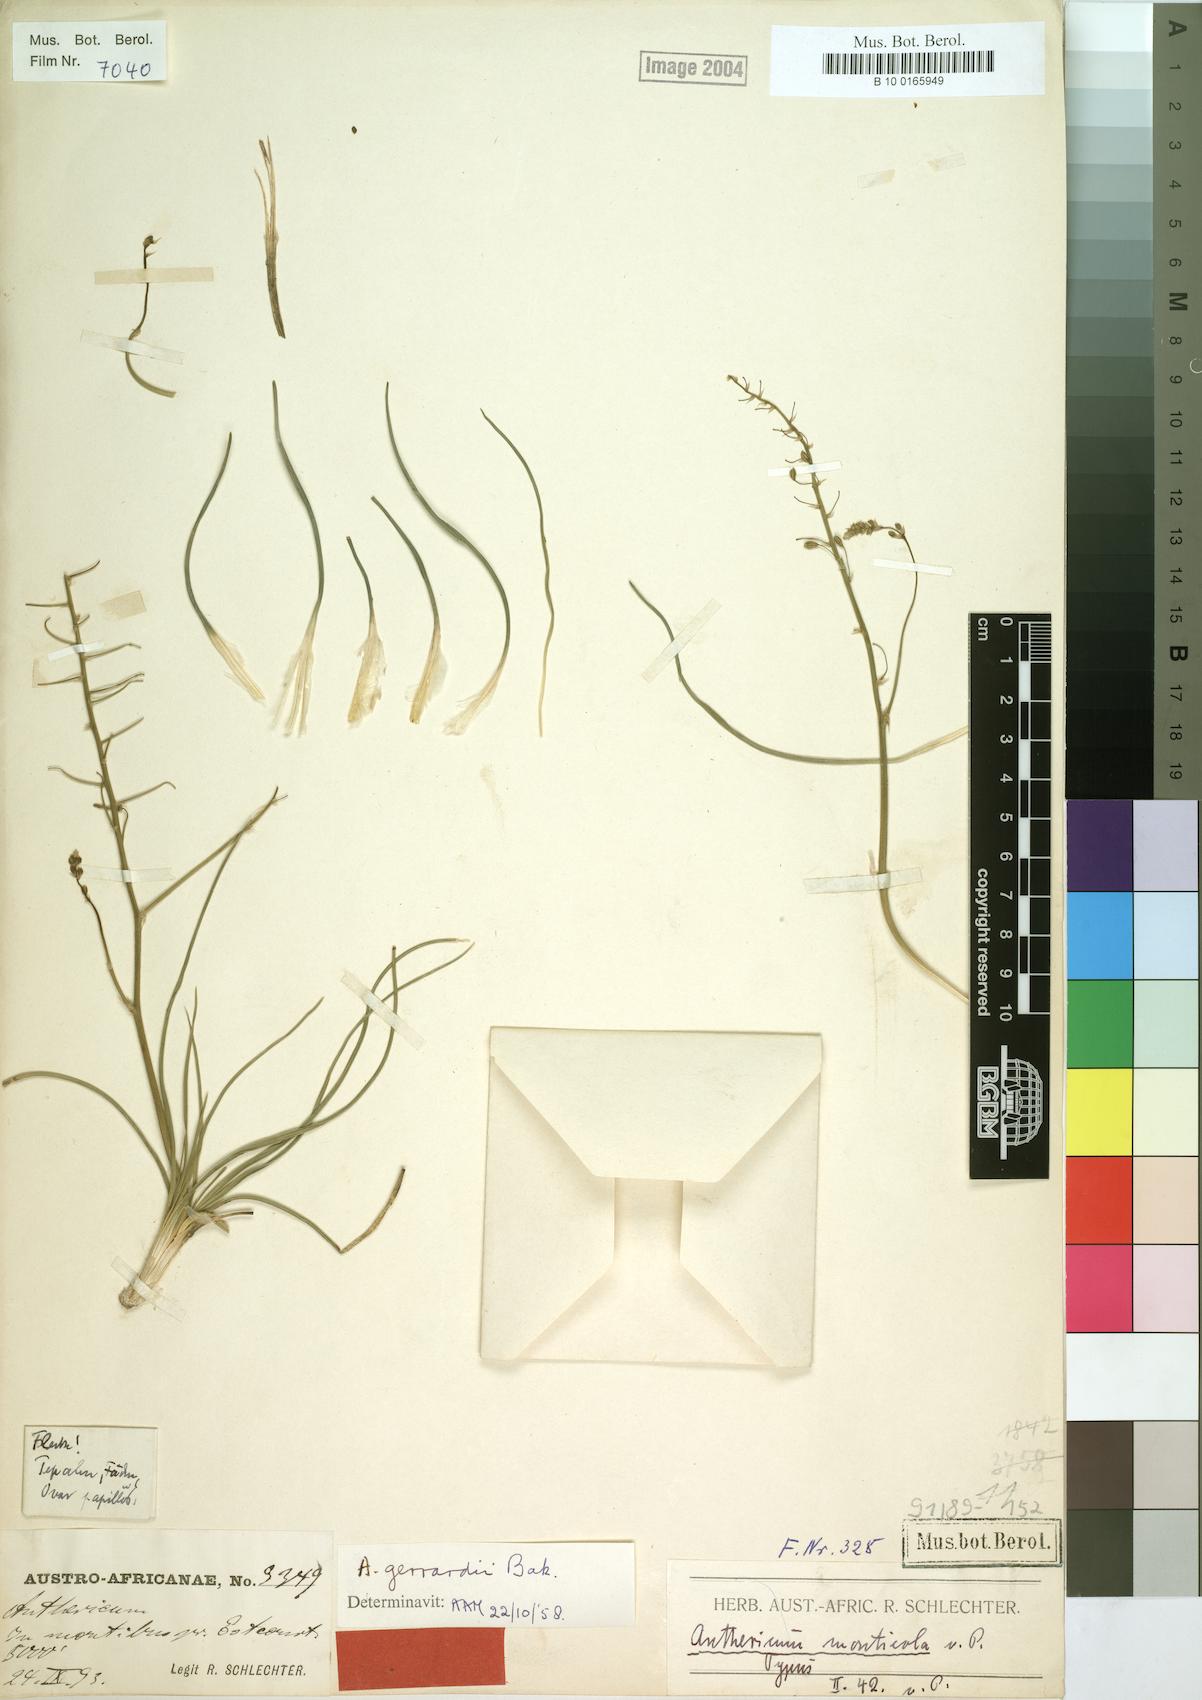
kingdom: Plantae
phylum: Tracheophyta
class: Liliopsida
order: Asparagales
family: Asphodelaceae
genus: Trachyandra
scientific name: Trachyandra gerrardii
